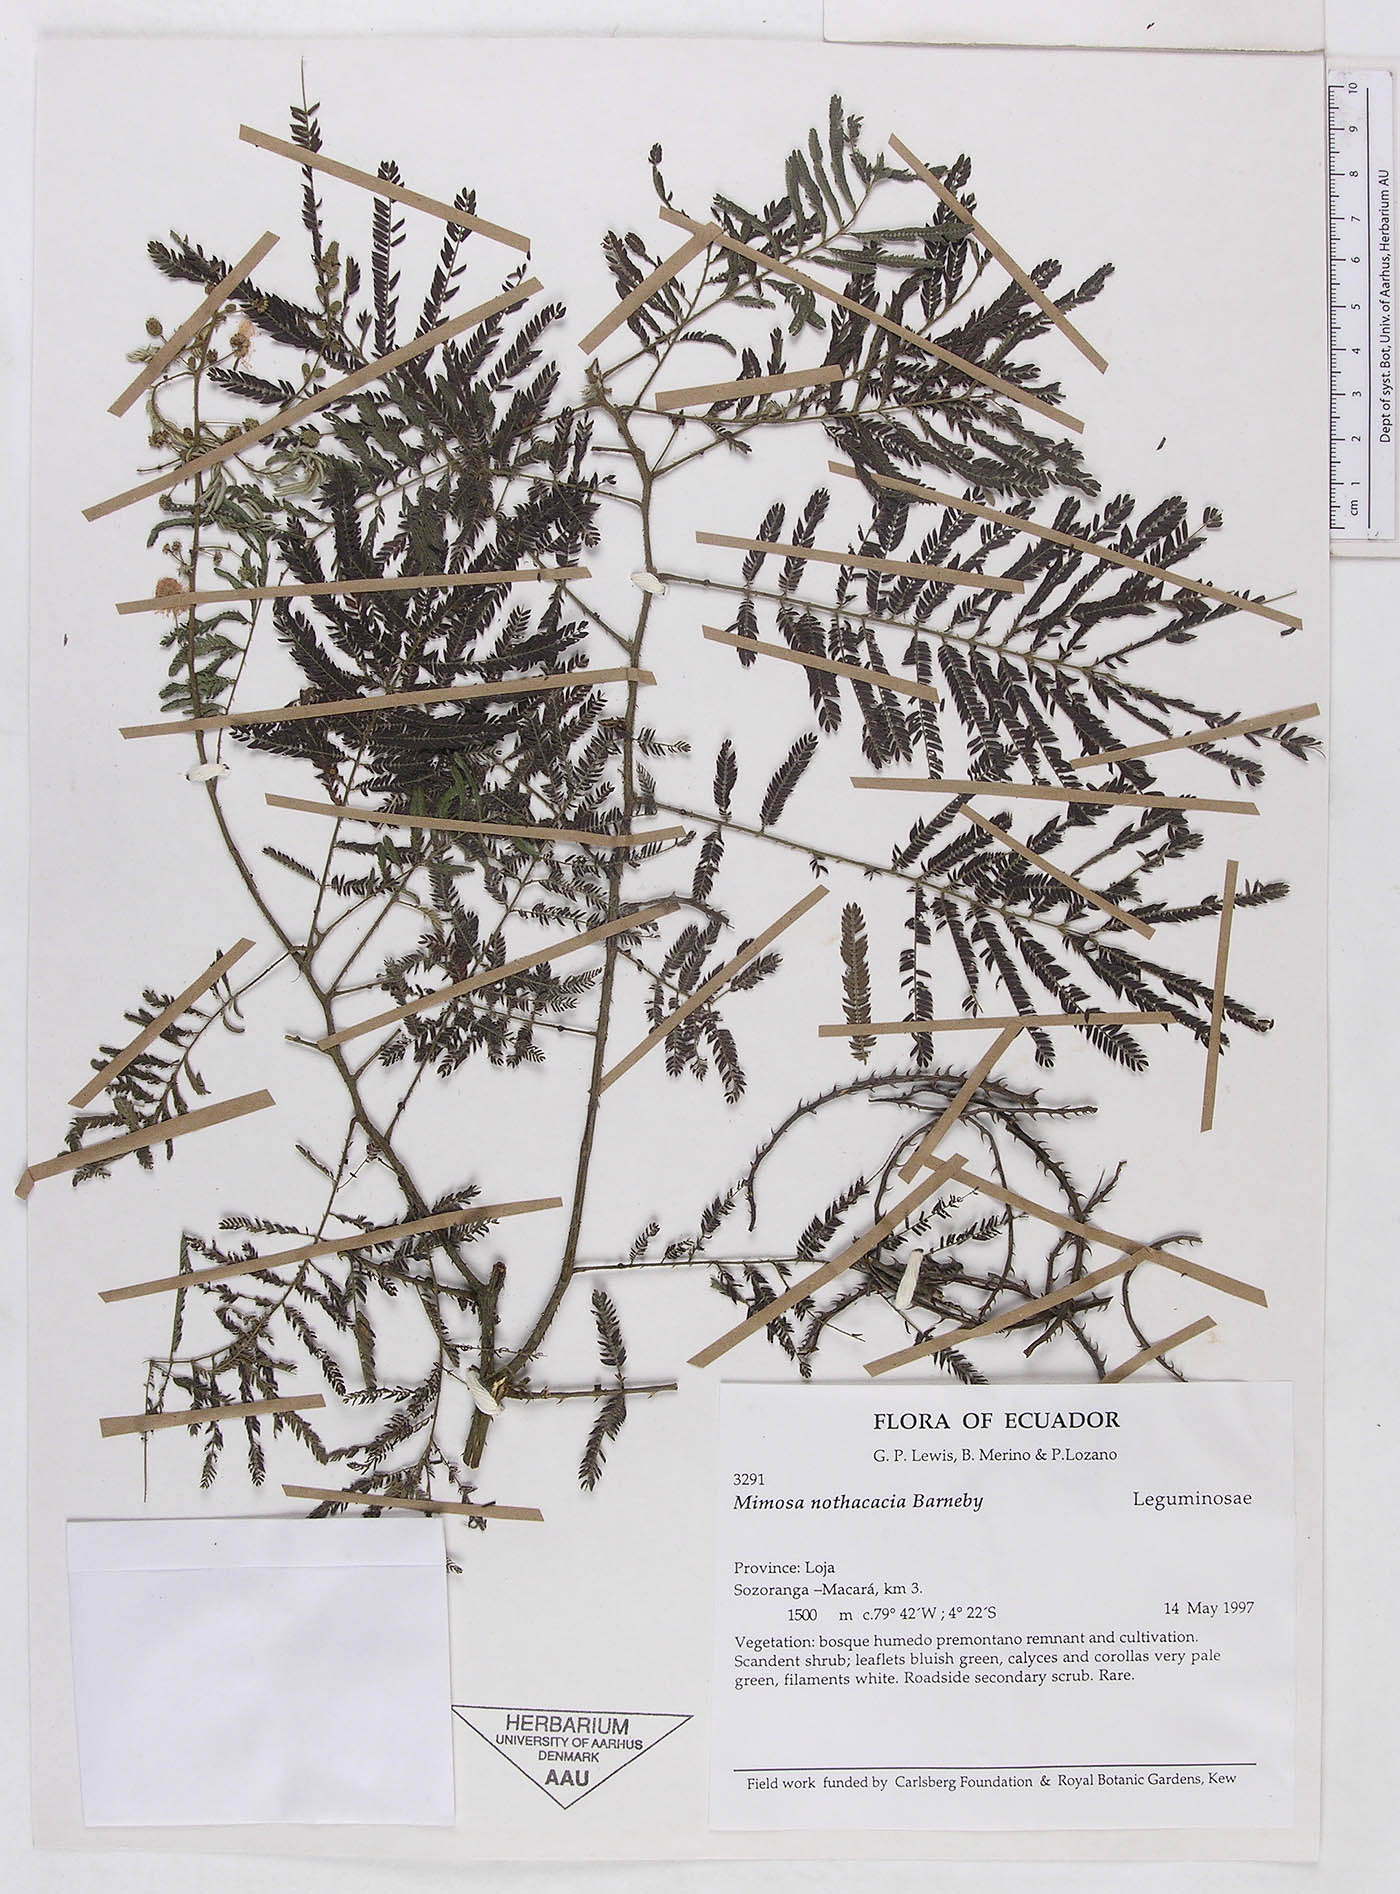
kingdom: Plantae
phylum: Tracheophyta
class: Magnoliopsida
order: Fabales
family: Fabaceae
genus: Mimosa
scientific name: Mimosa nothacacia
